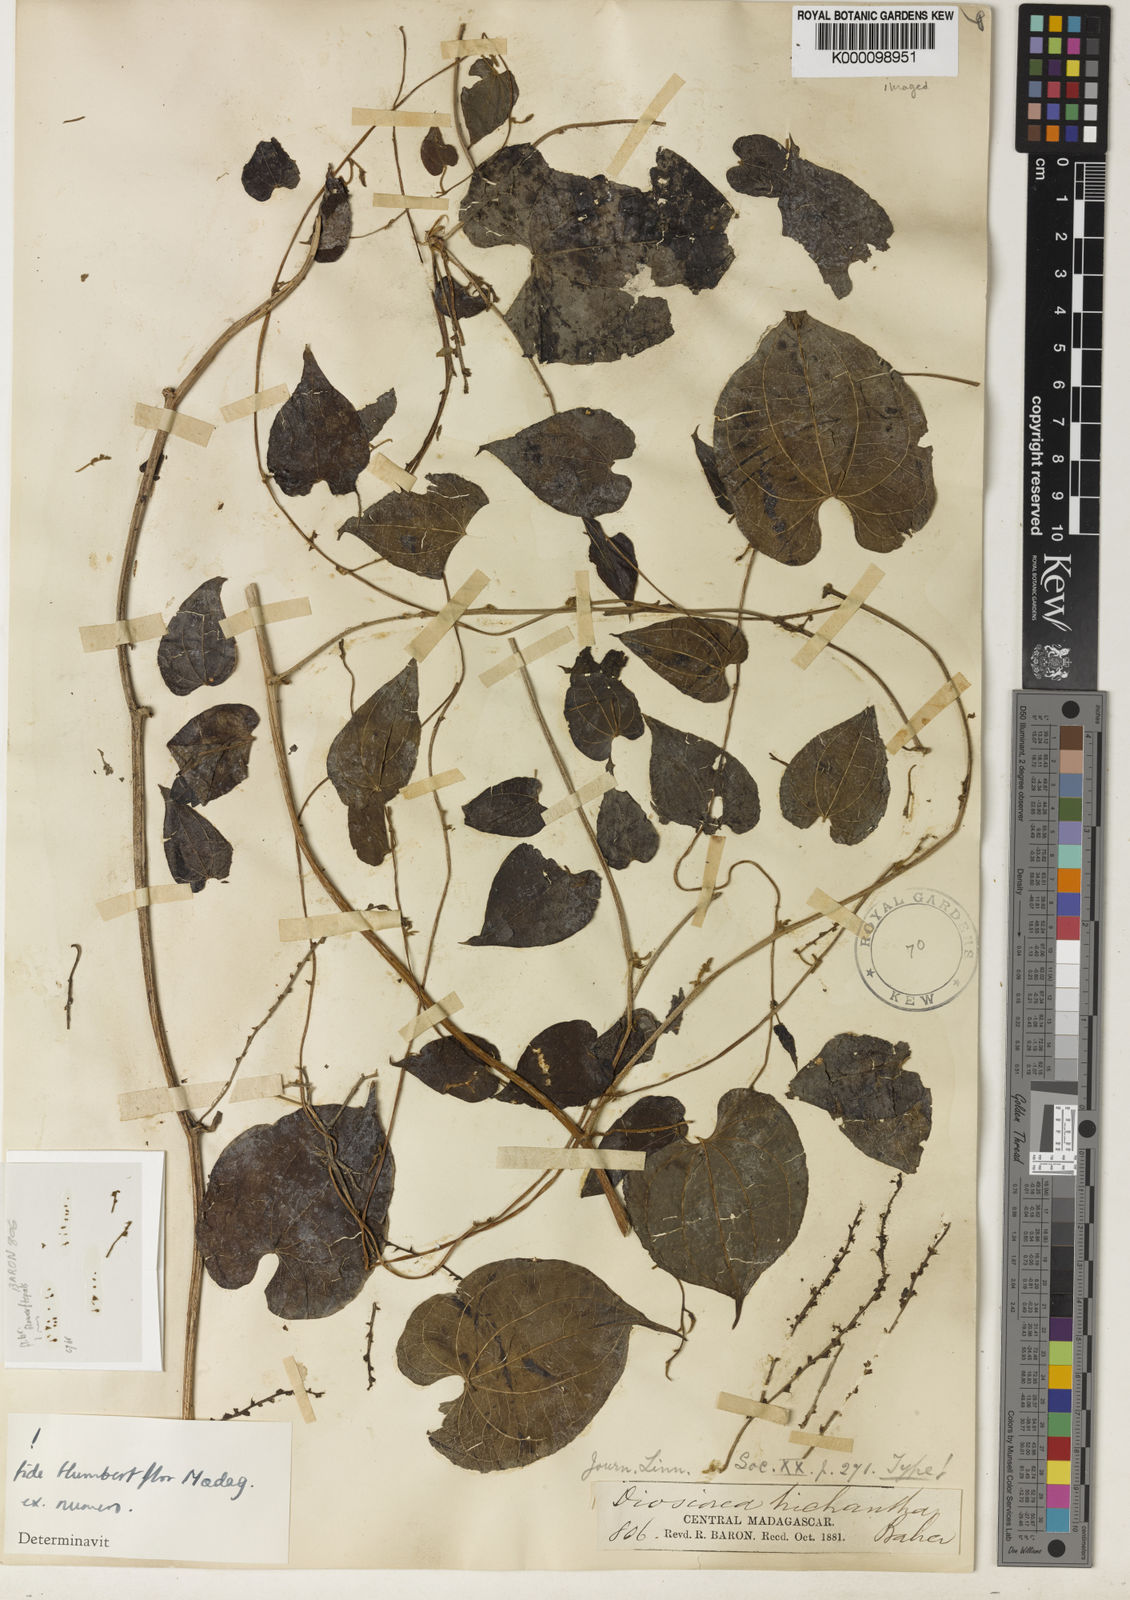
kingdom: Plantae
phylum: Tracheophyta
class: Liliopsida
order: Dioscoreales
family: Dioscoreaceae
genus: Dioscorea
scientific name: Dioscorea trichantha
